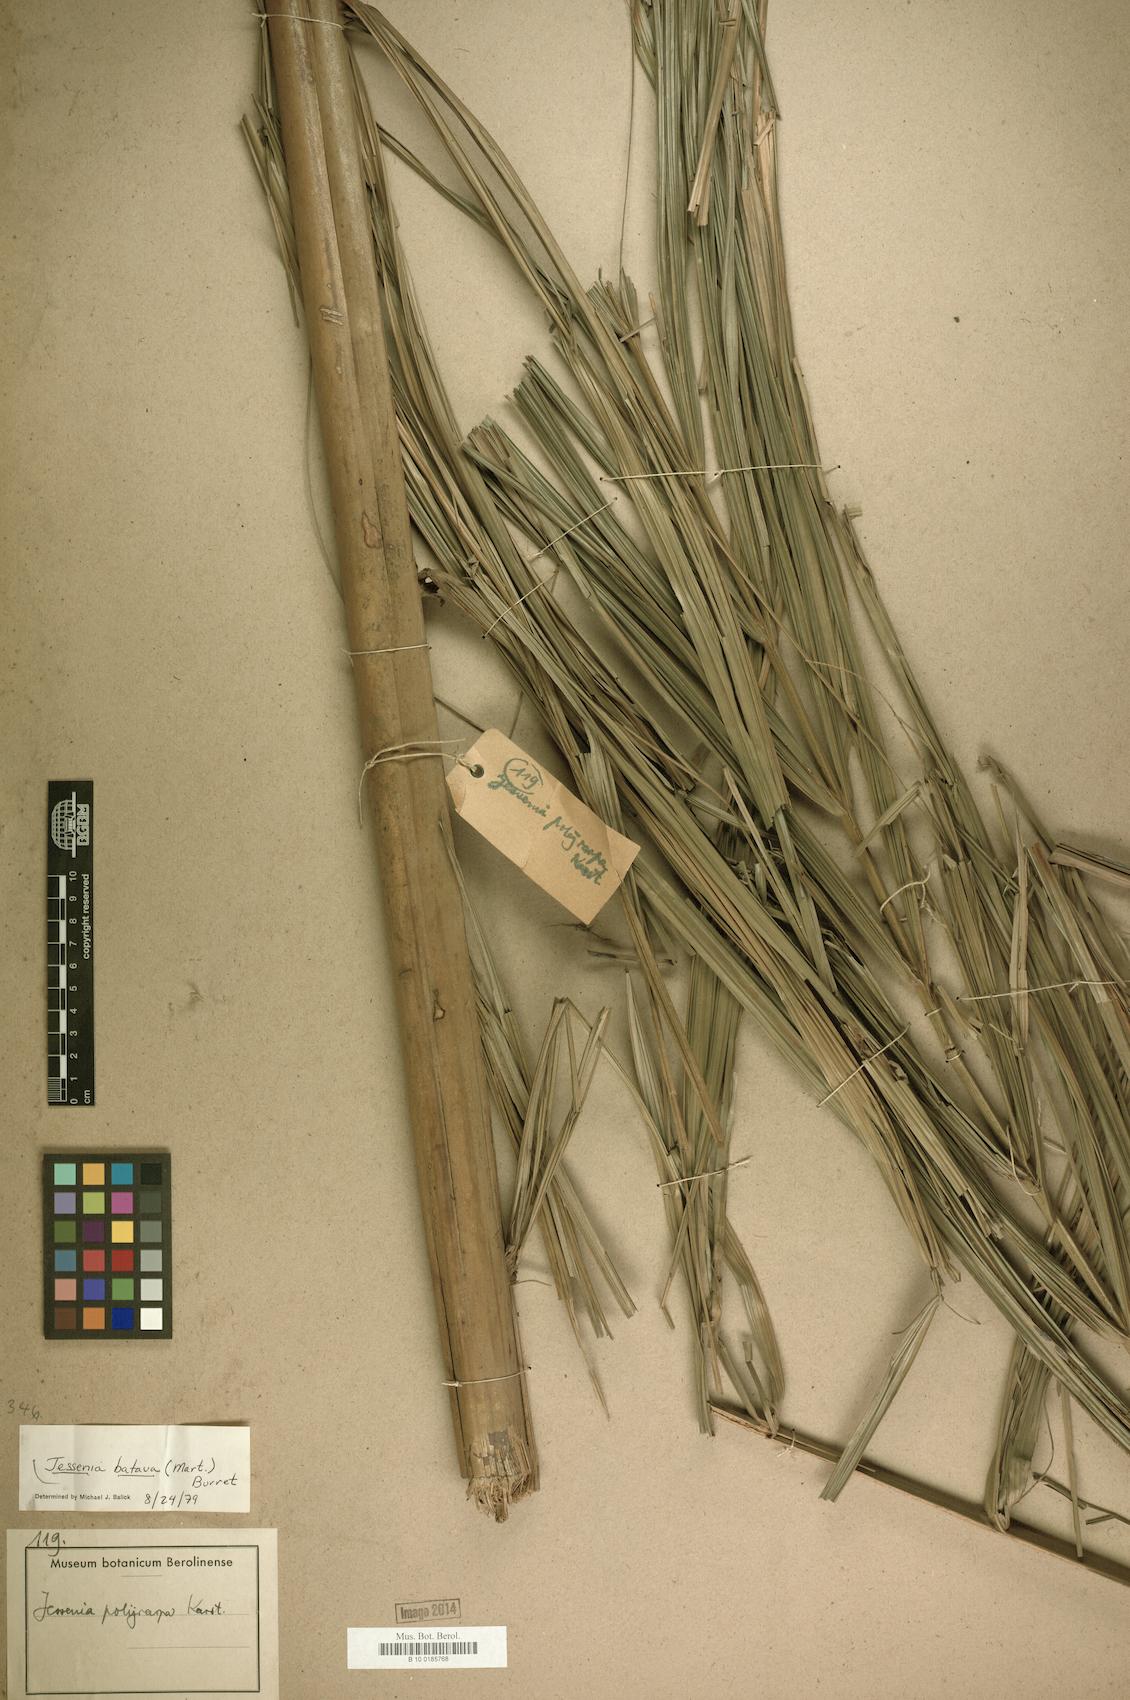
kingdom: Plantae
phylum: Tracheophyta
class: Liliopsida
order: Arecales
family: Arecaceae
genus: Oenocarpus
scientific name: Oenocarpus bataua
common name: Bataua palm
